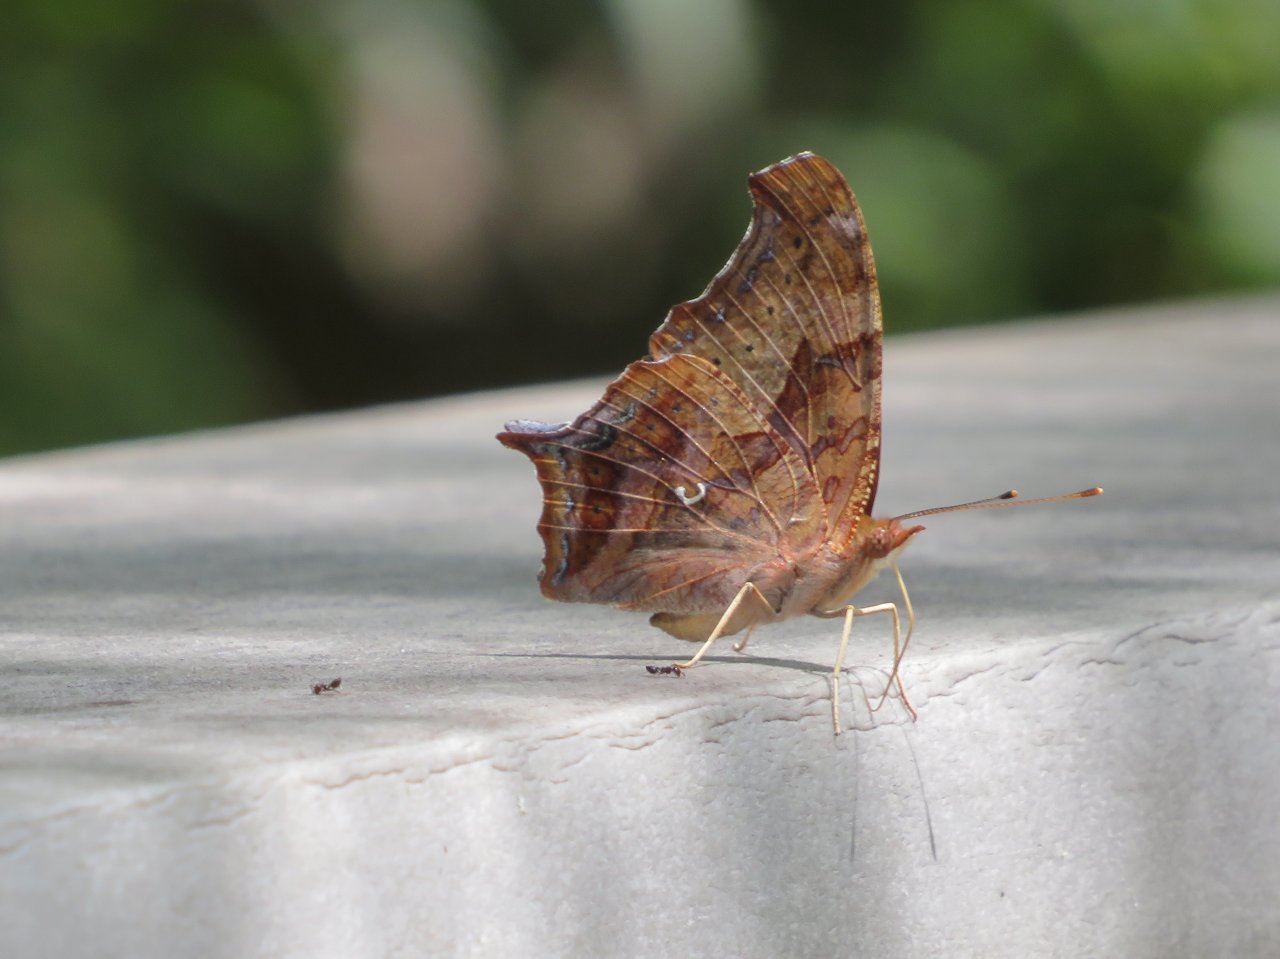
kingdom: Animalia
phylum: Arthropoda
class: Insecta
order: Lepidoptera
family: Nymphalidae
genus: Polygonia
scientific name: Polygonia interrogationis
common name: Question Mark
